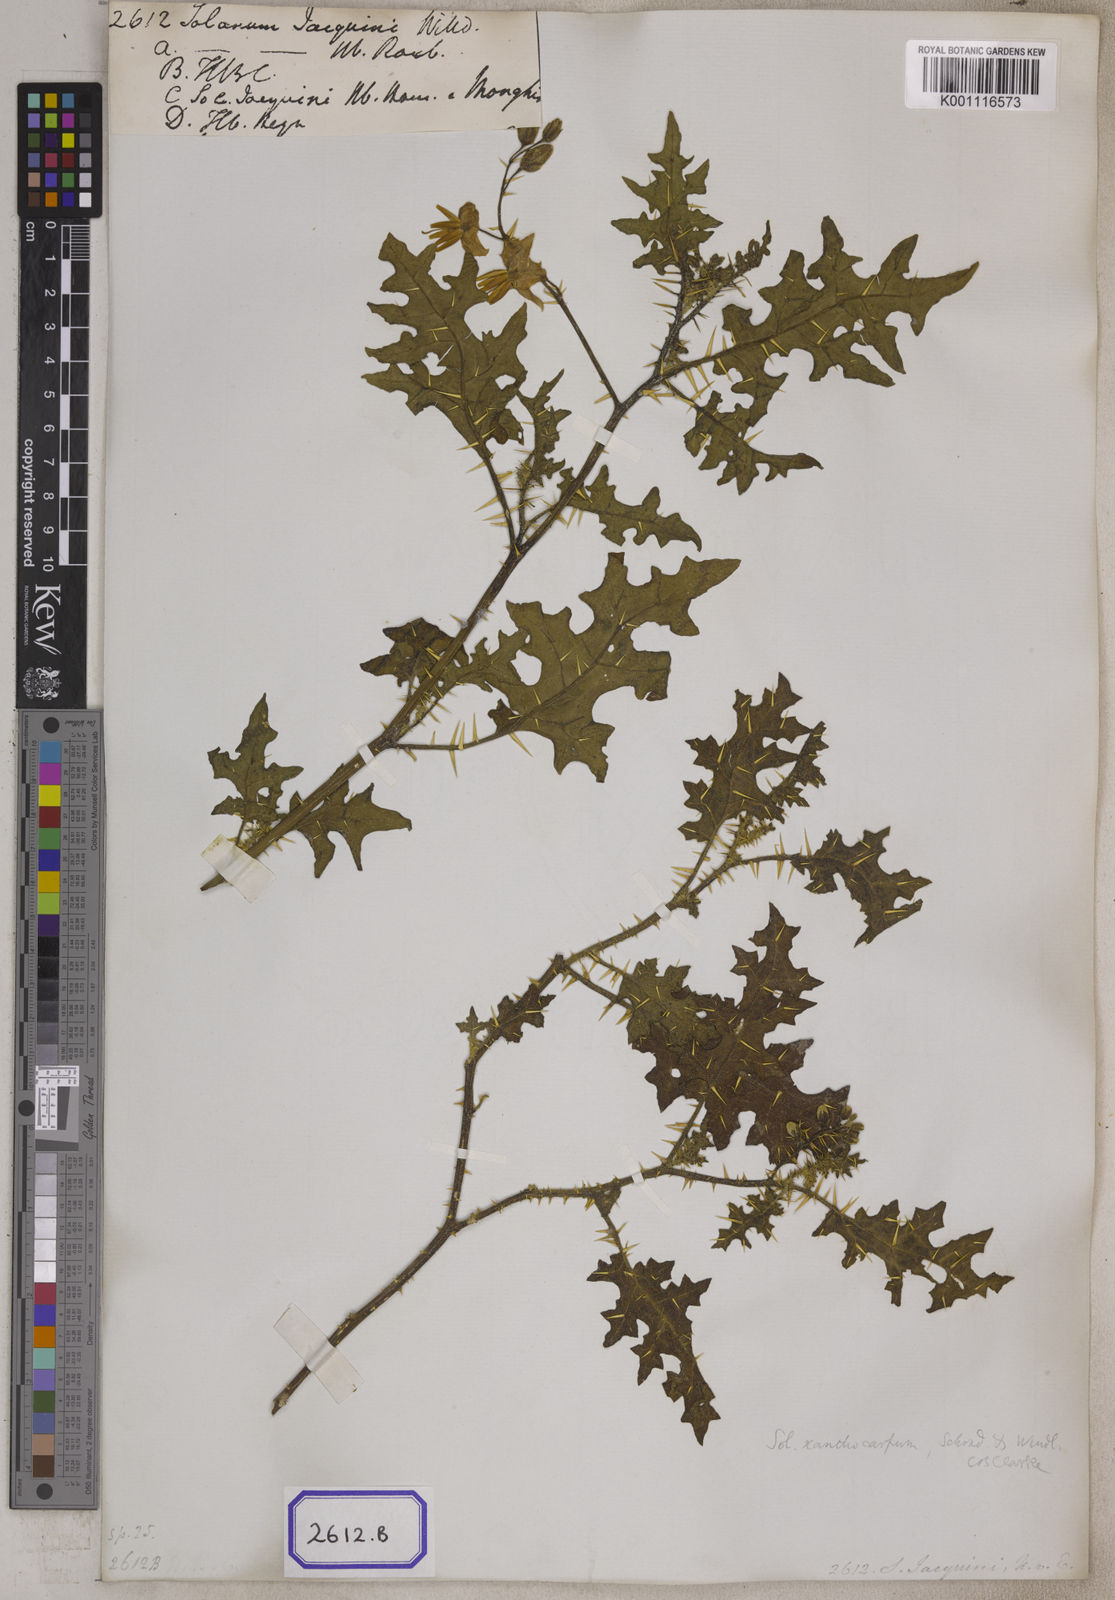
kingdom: Plantae
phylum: Tracheophyta
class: Magnoliopsida
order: Solanales
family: Solanaceae
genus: Solanum
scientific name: Solanum virginianum
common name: Surattense nightshade
